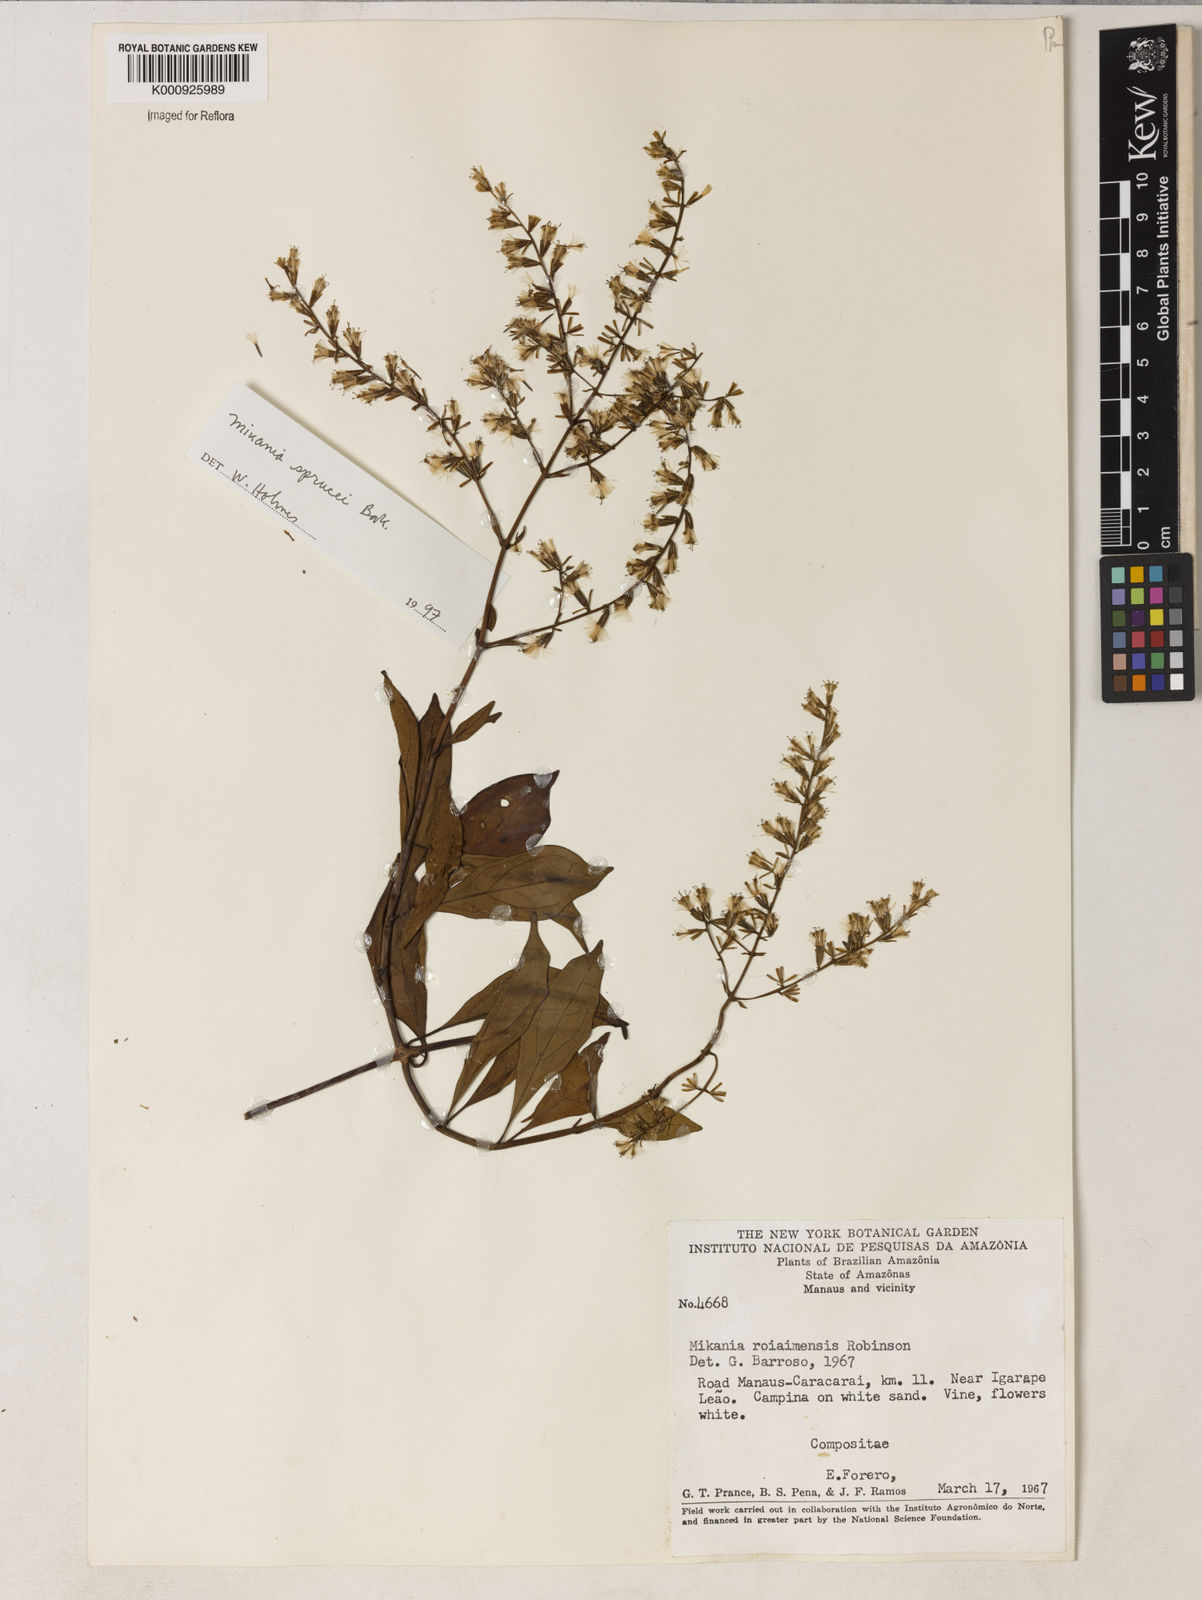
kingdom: Plantae
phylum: Tracheophyta
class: Magnoliopsida
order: Asterales
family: Asteraceae
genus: Mikania
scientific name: Mikania
